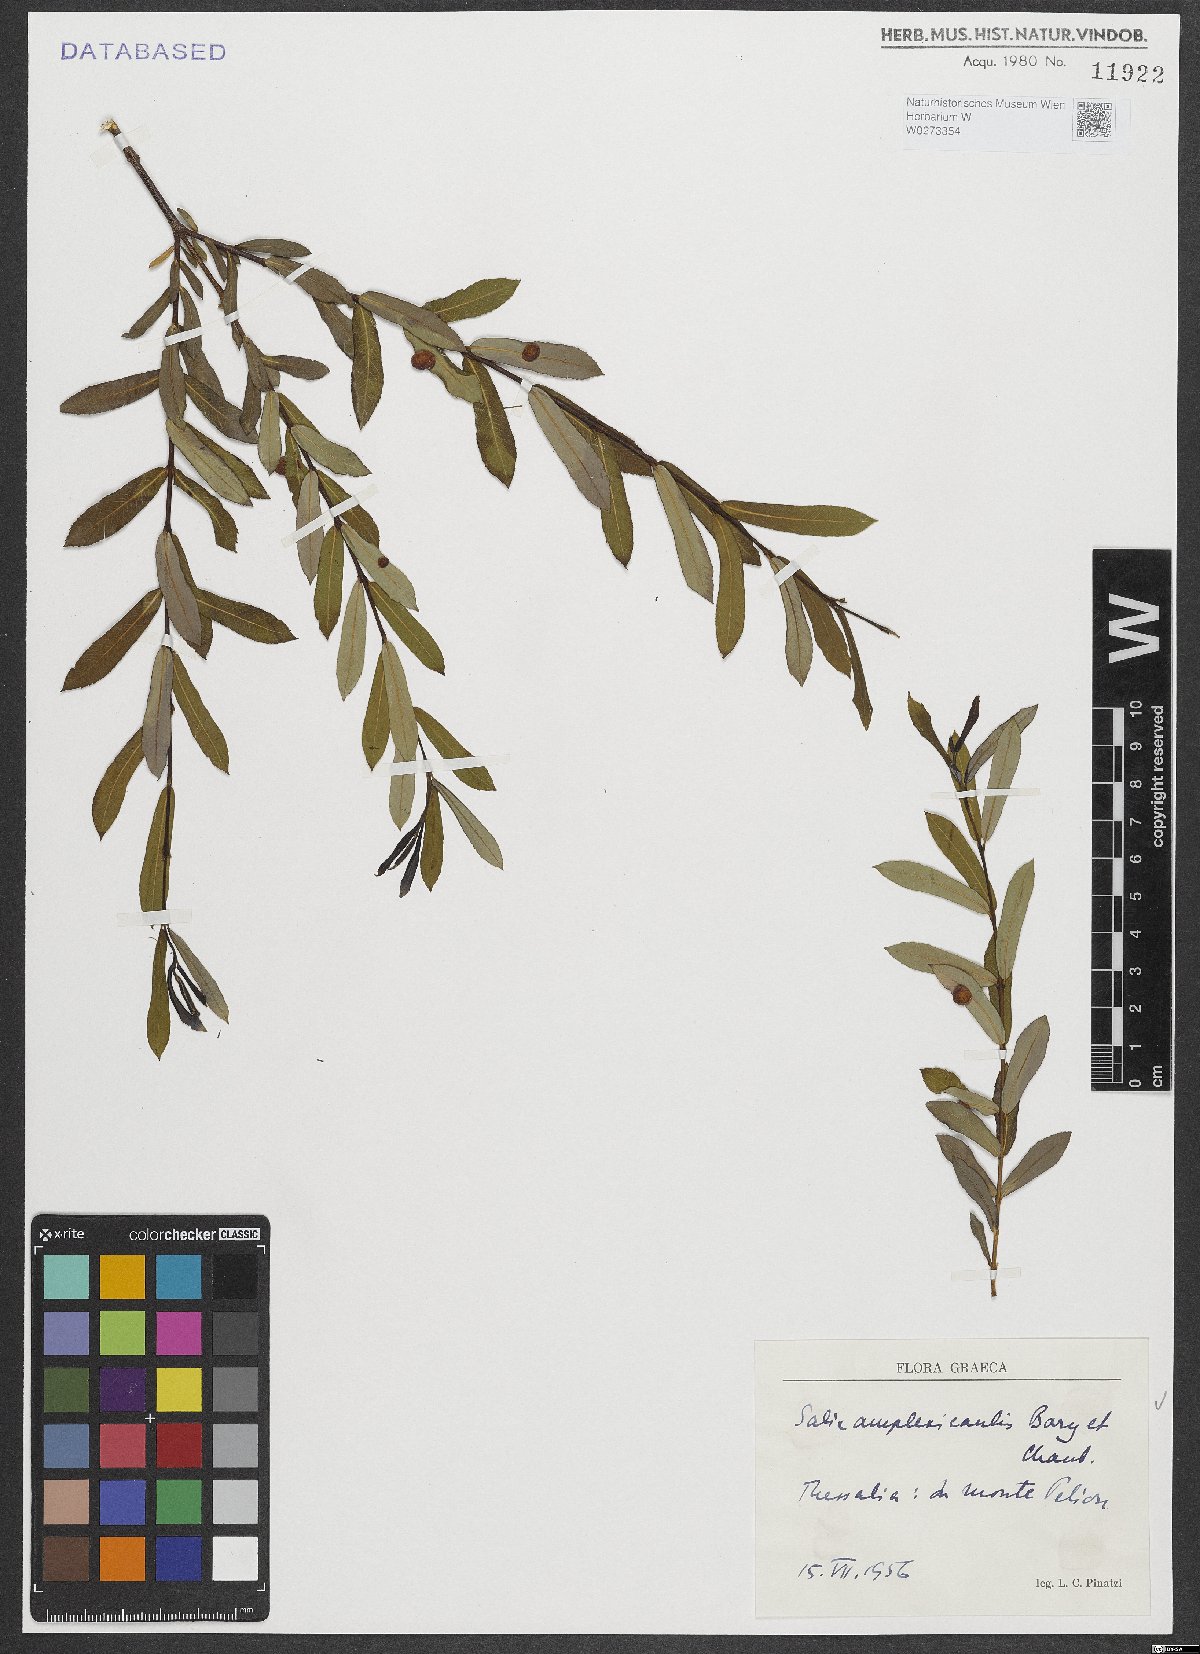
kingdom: Plantae
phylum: Tracheophyta
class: Magnoliopsida
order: Malpighiales
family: Salicaceae
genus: Salix
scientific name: Salix amplexicaulis
